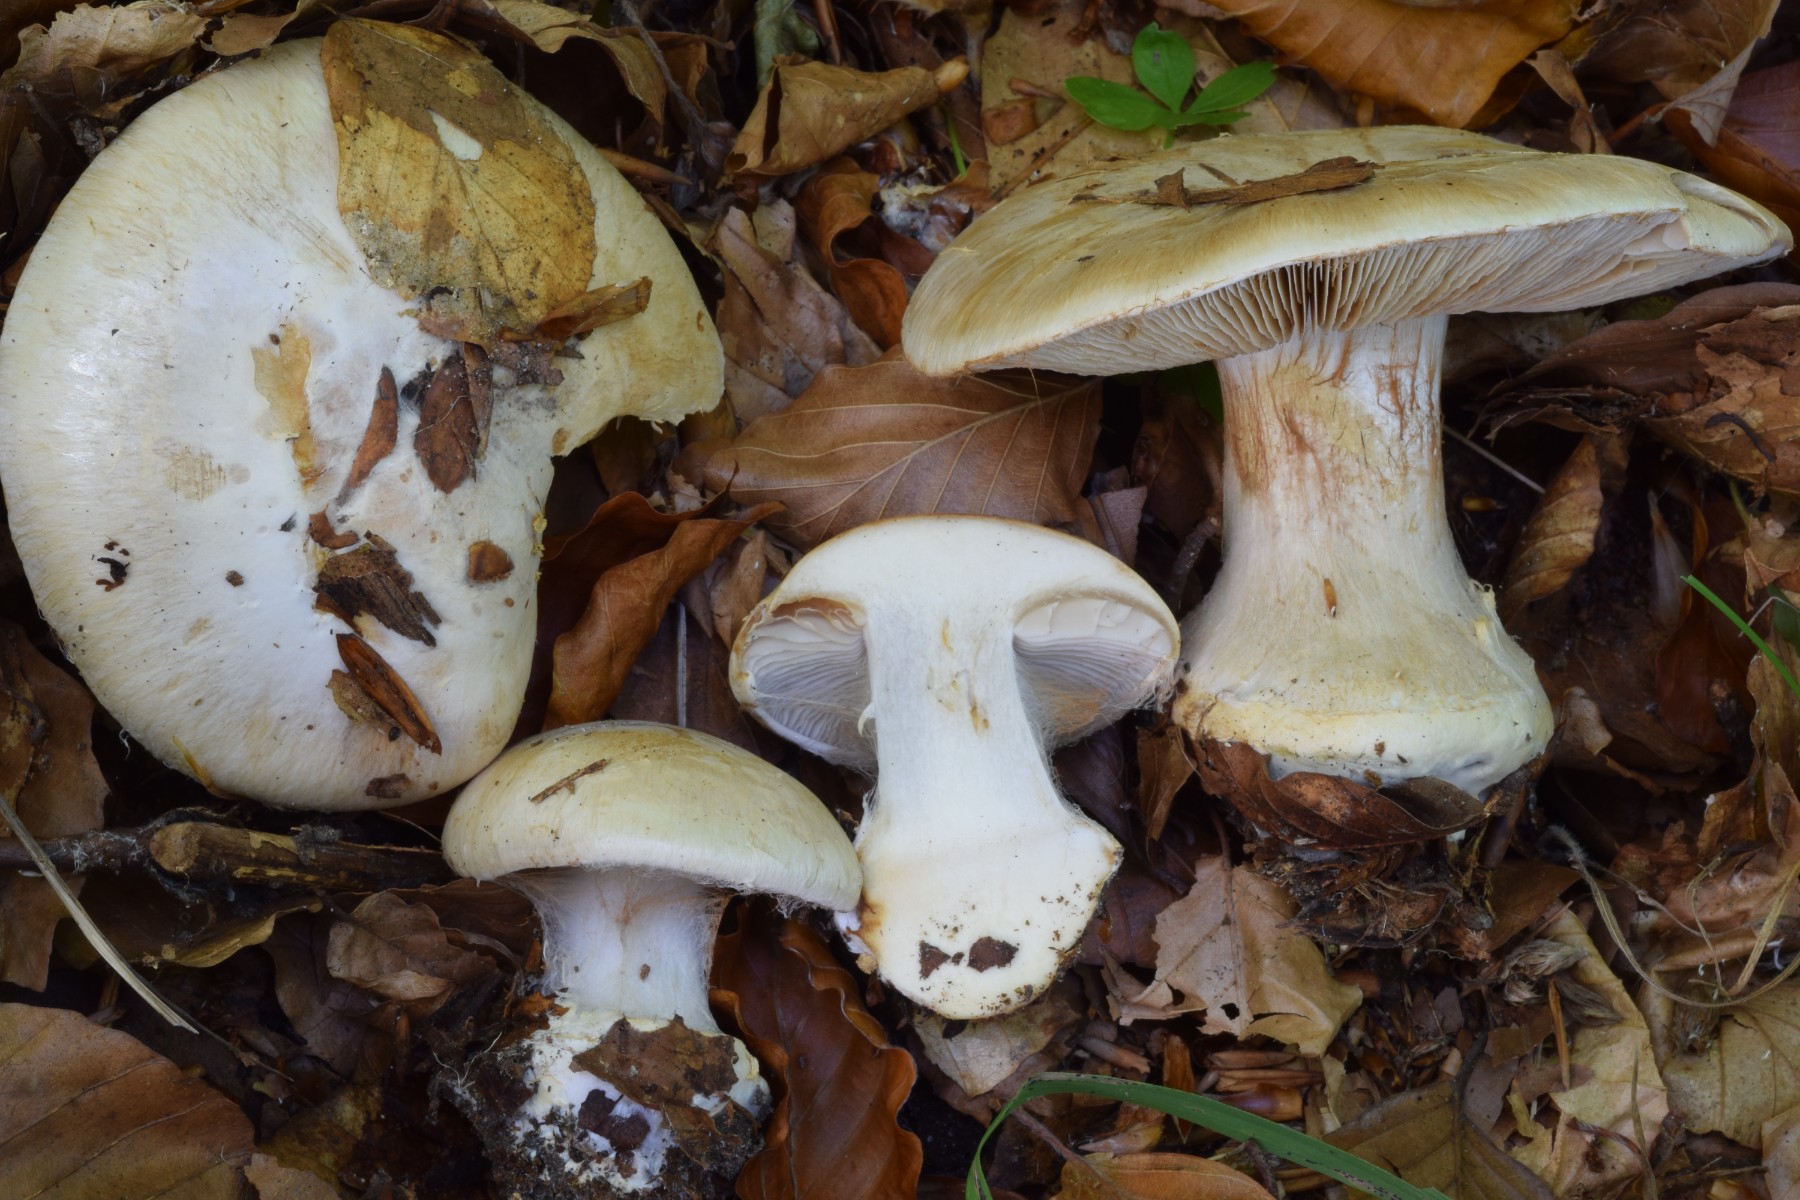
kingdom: Fungi
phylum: Basidiomycota
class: Agaricomycetes
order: Agaricales
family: Cortinariaceae
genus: Cortinarius
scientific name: Cortinarius foetens
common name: stribet slørhat
